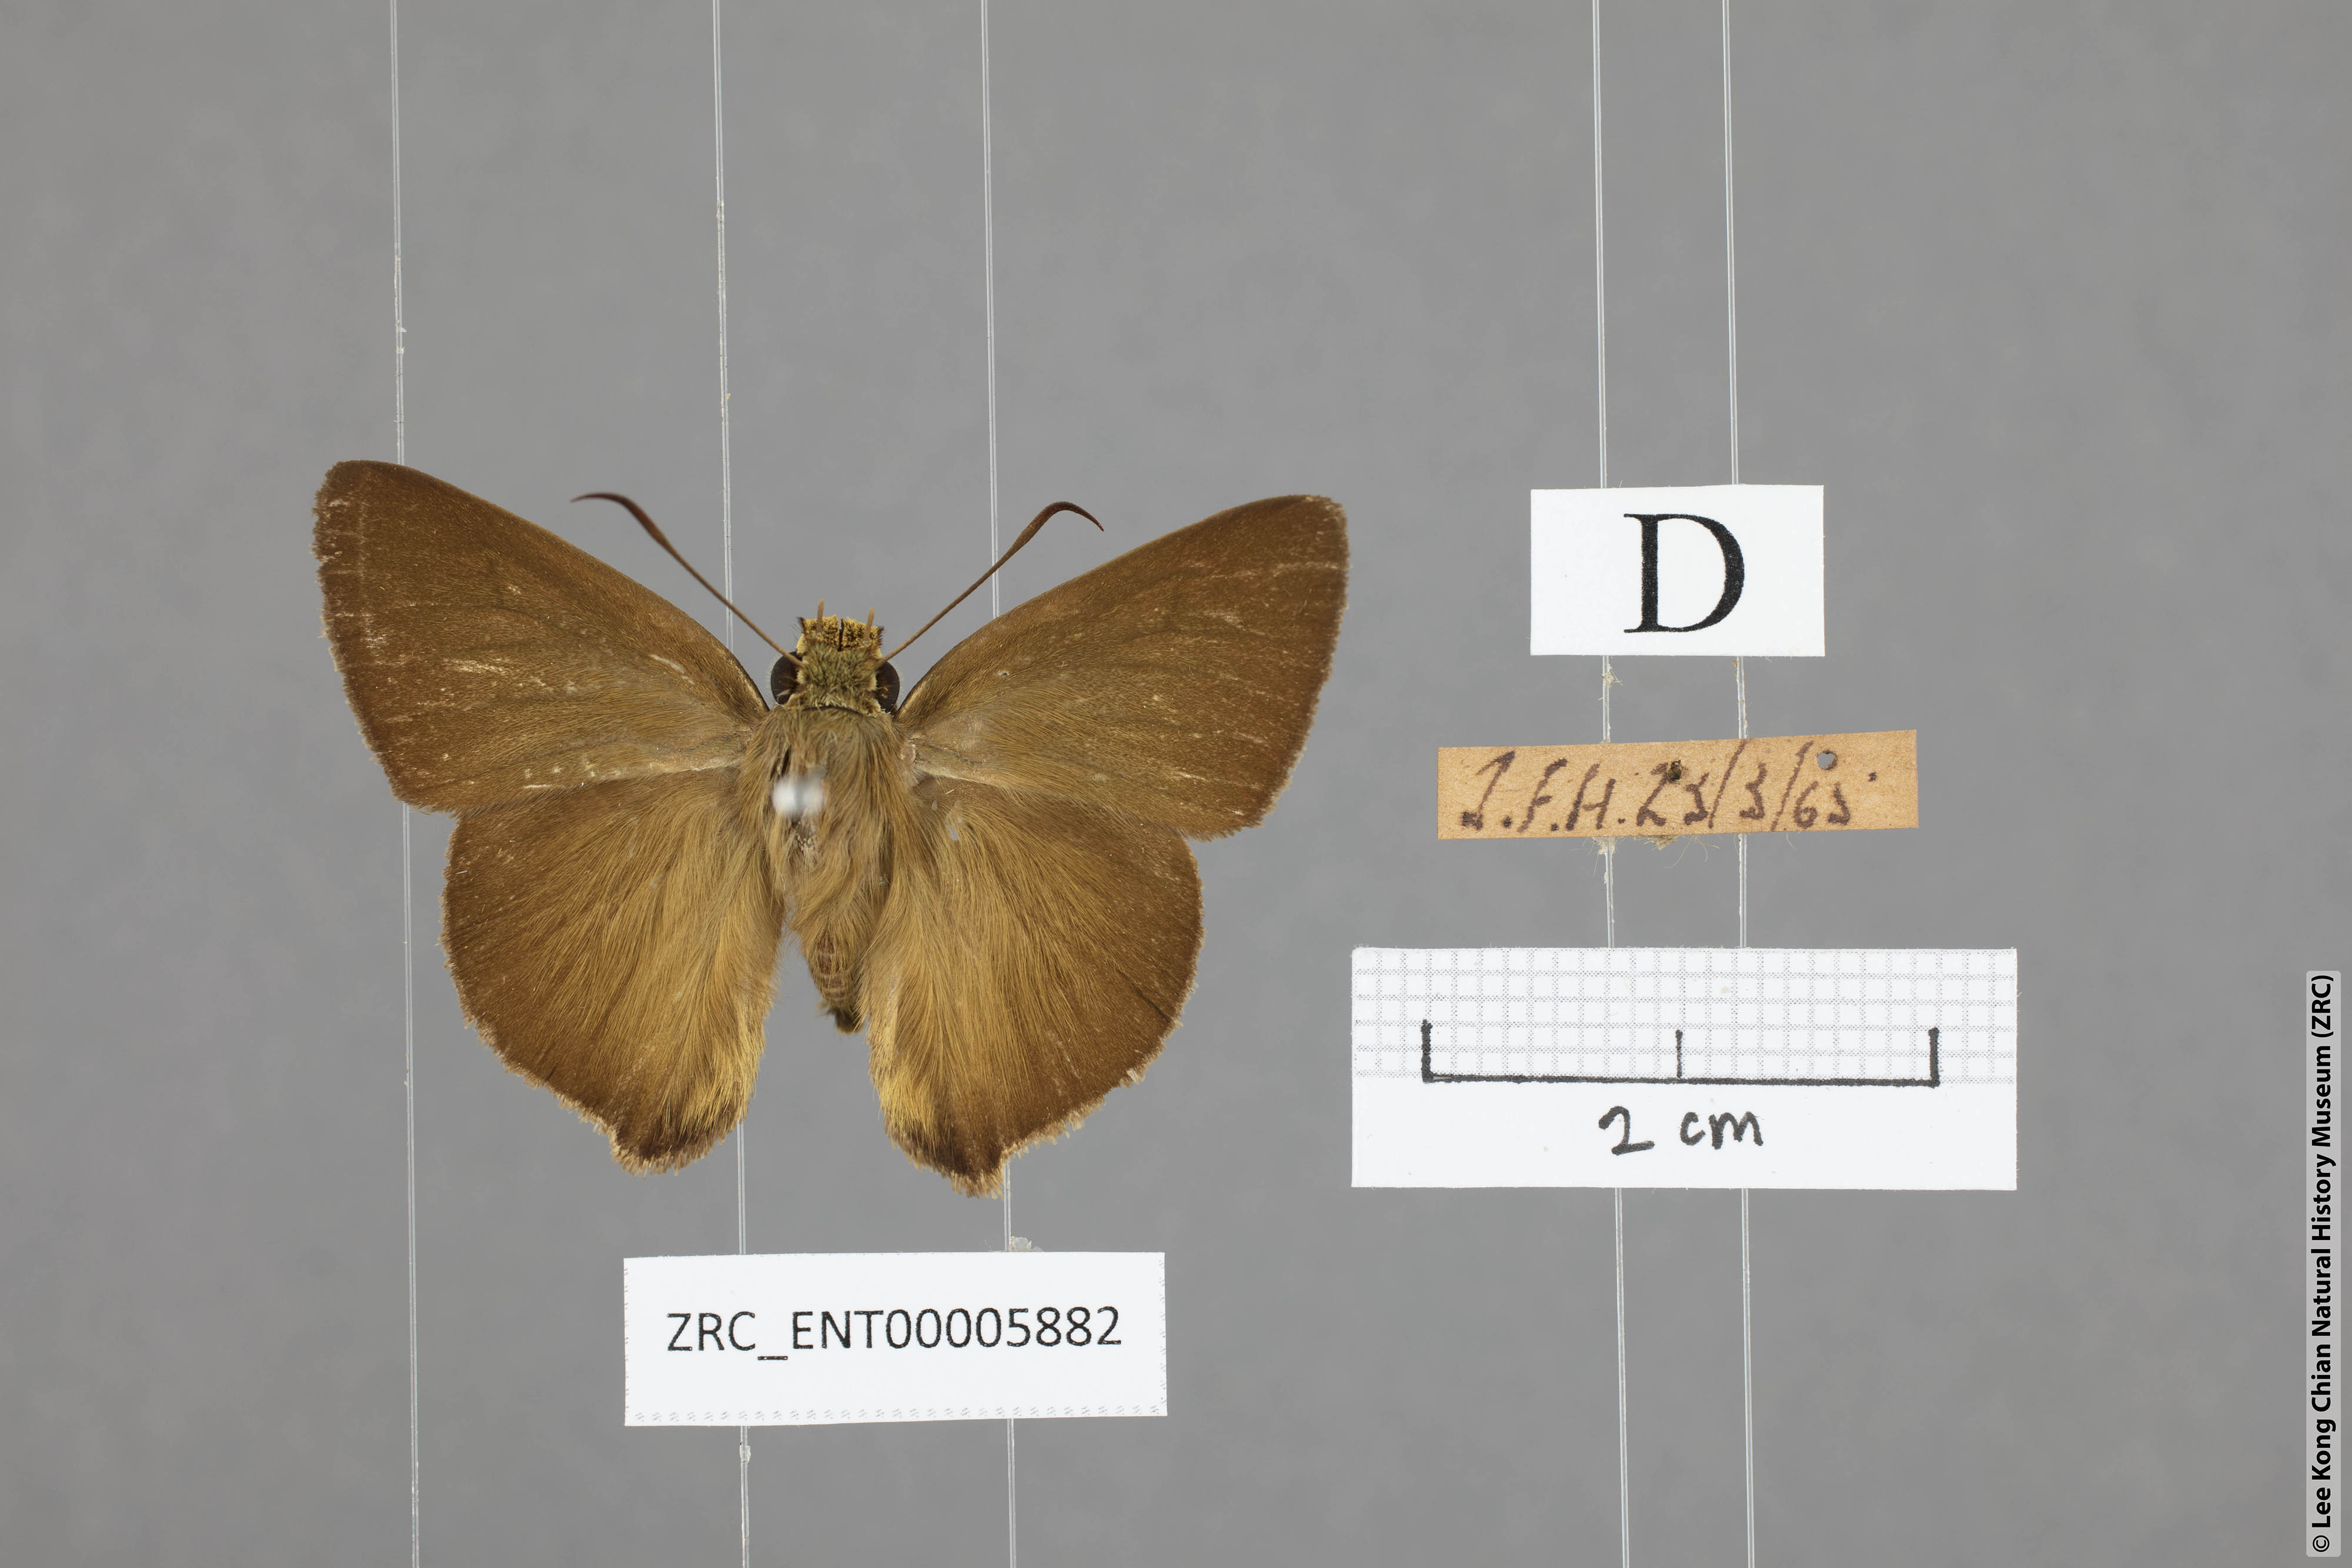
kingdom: Animalia
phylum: Arthropoda
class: Insecta
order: Lepidoptera
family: Hesperiidae
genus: Hasora
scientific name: Hasora mus
